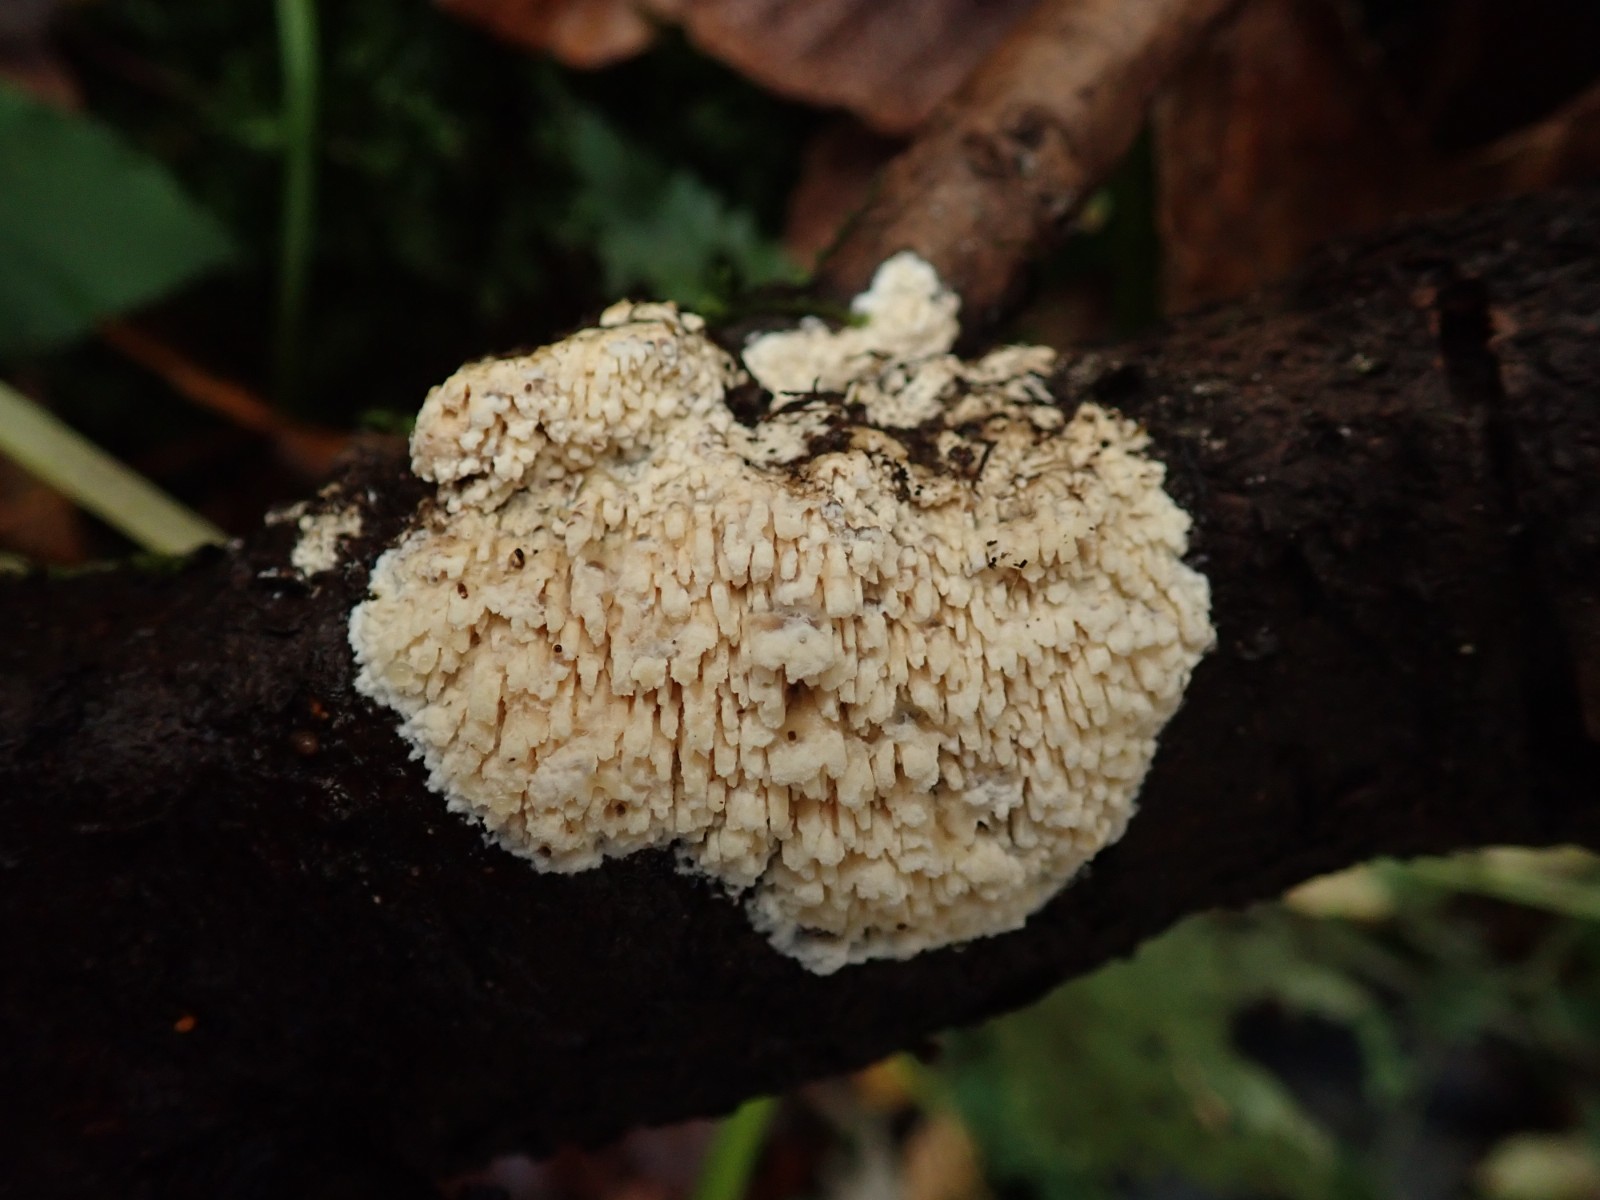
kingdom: Fungi
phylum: Basidiomycota
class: Agaricomycetes
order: Hymenochaetales
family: Schizoporaceae
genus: Xylodon
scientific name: Xylodon radula
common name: grovtandet kalkskind
